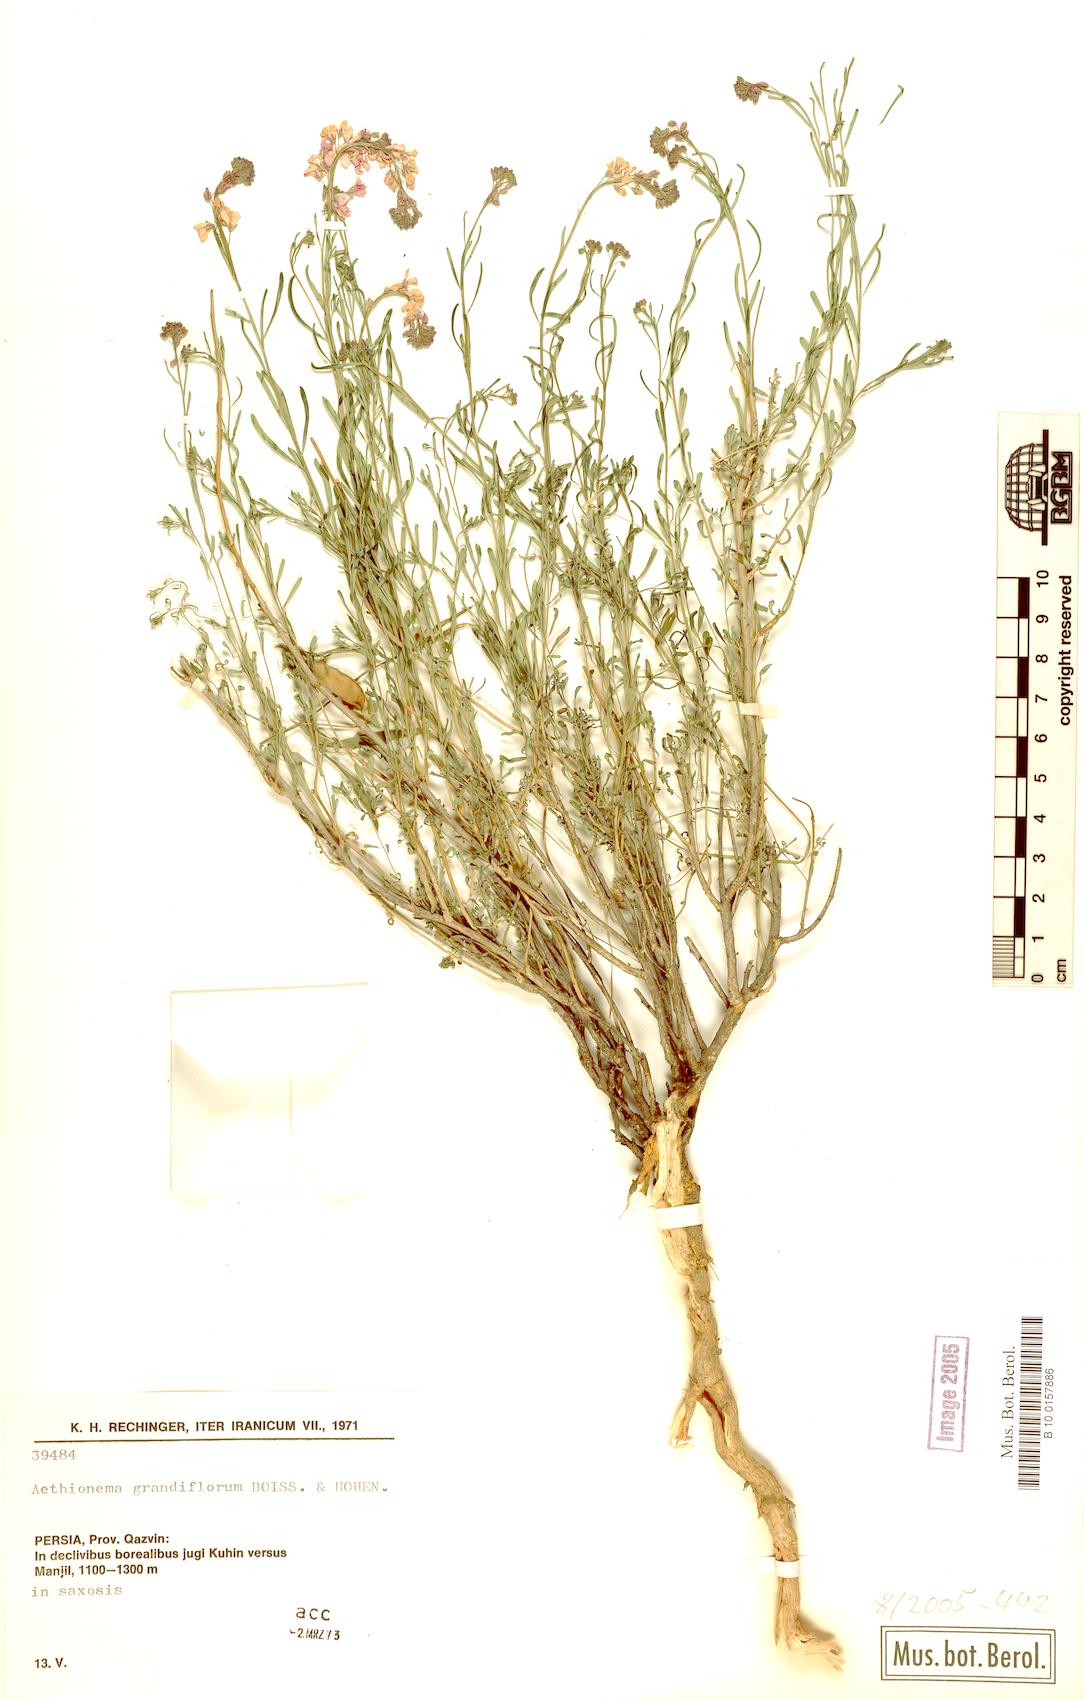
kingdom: Plantae
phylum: Tracheophyta
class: Magnoliopsida
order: Brassicales
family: Brassicaceae
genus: Aethionema
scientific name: Aethionema grandiflorum
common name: Persian stonecress
